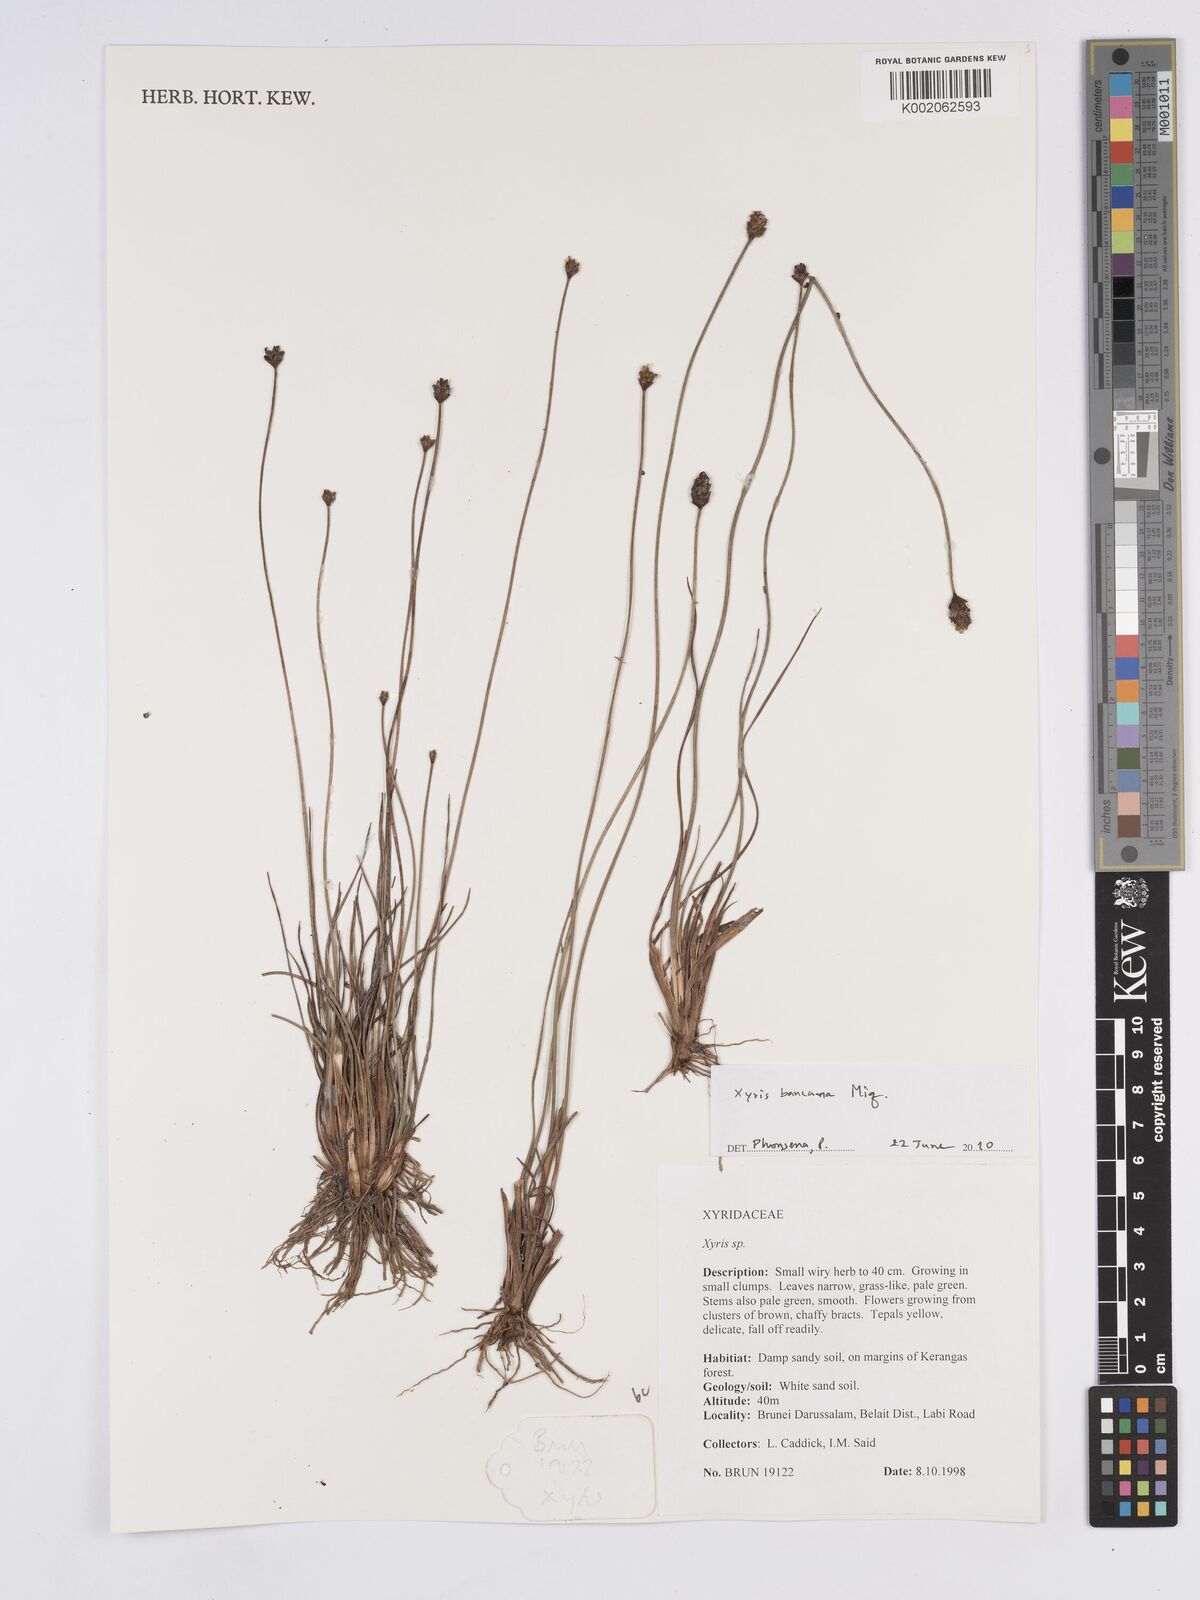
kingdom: Plantae
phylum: Tracheophyta
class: Liliopsida
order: Poales
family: Xyridaceae
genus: Xyris
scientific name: Xyris bancana
